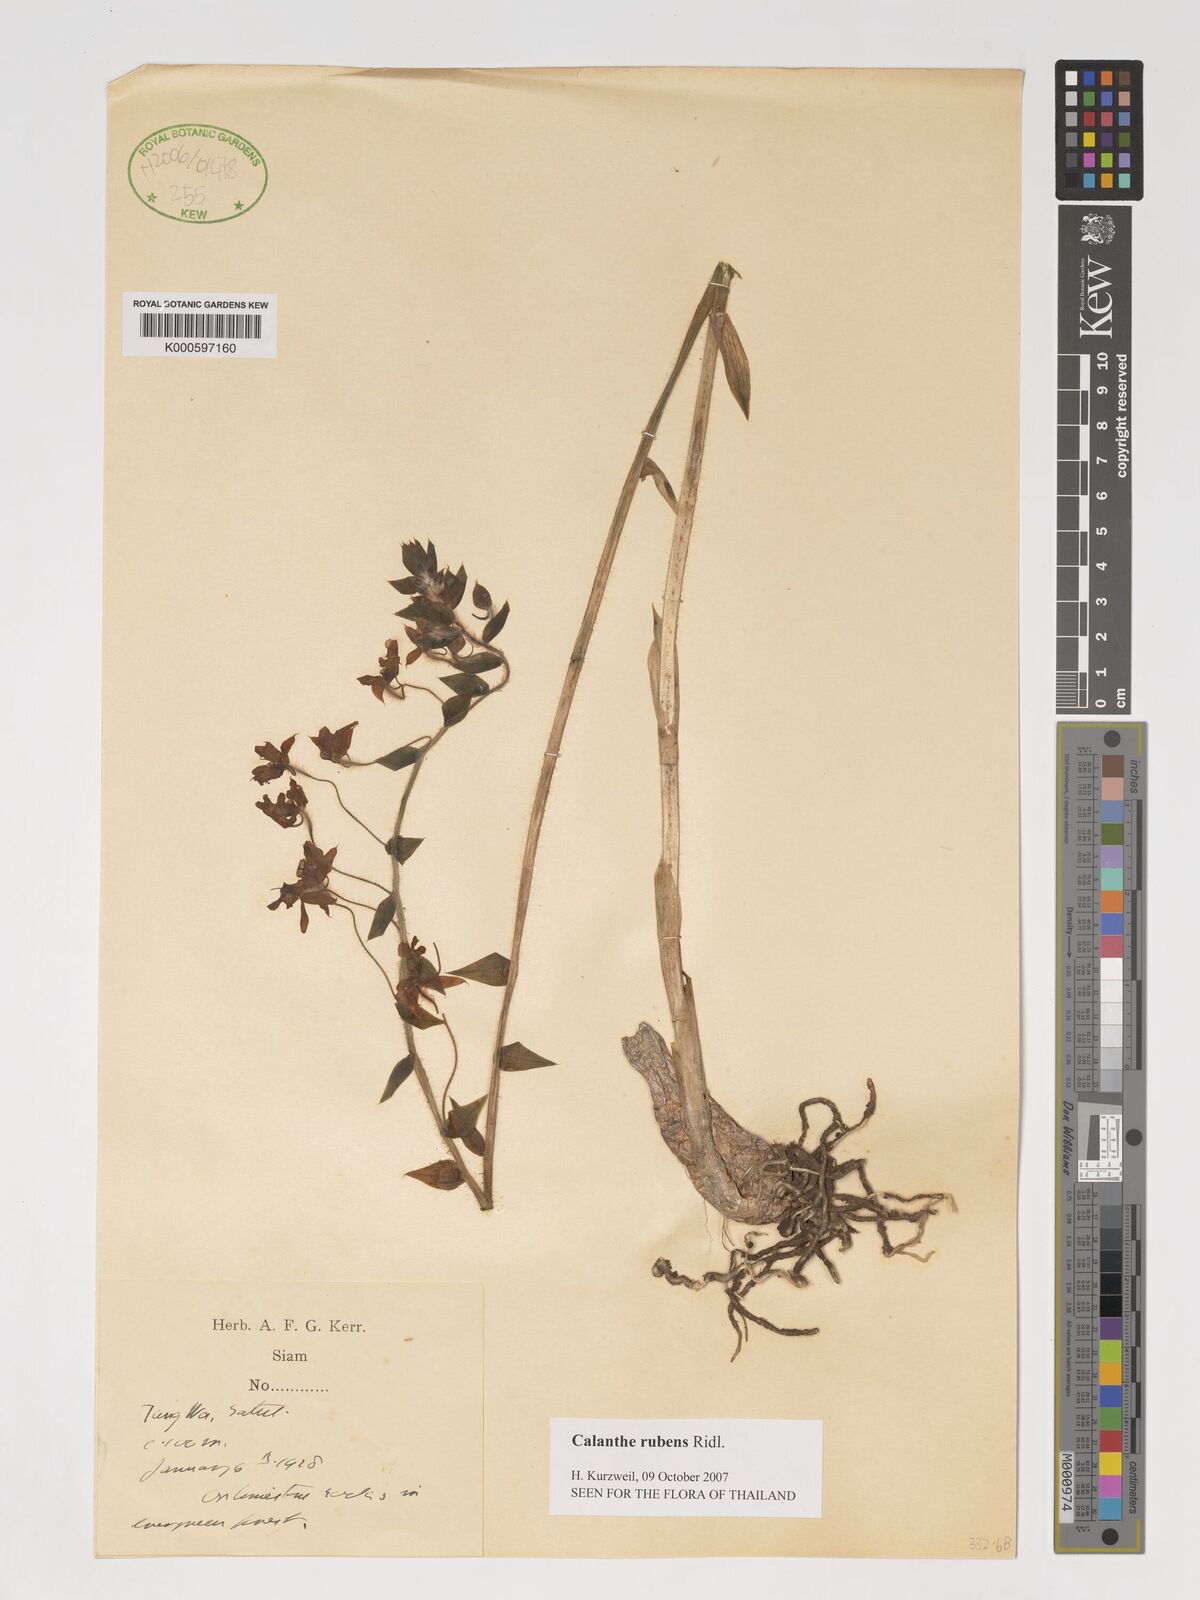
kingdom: Plantae
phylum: Tracheophyta
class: Liliopsida
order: Asparagales
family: Orchidaceae
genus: Calanthe
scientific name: Calanthe rubens
